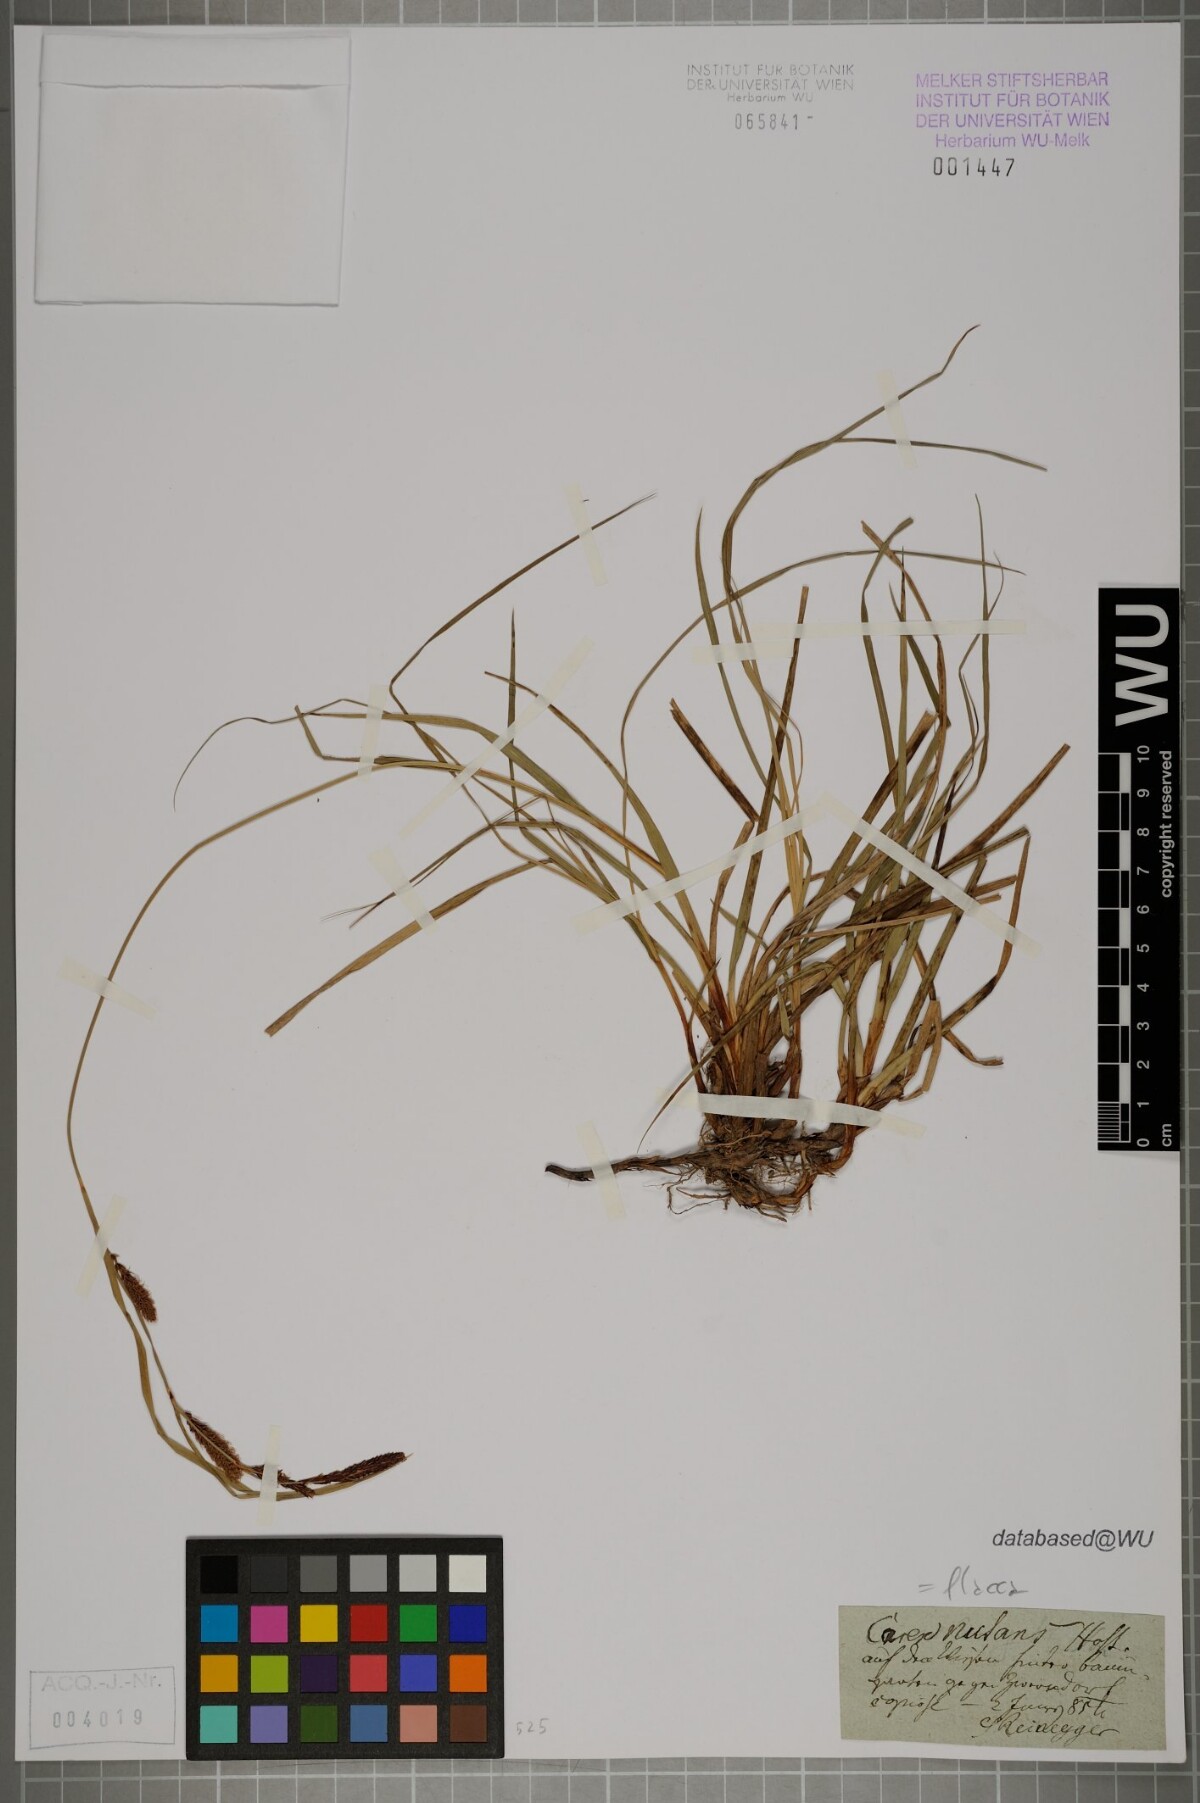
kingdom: Plantae
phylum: Tracheophyta
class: Liliopsida
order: Poales
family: Cyperaceae
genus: Carex
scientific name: Carex flacca
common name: Glaucous sedge
